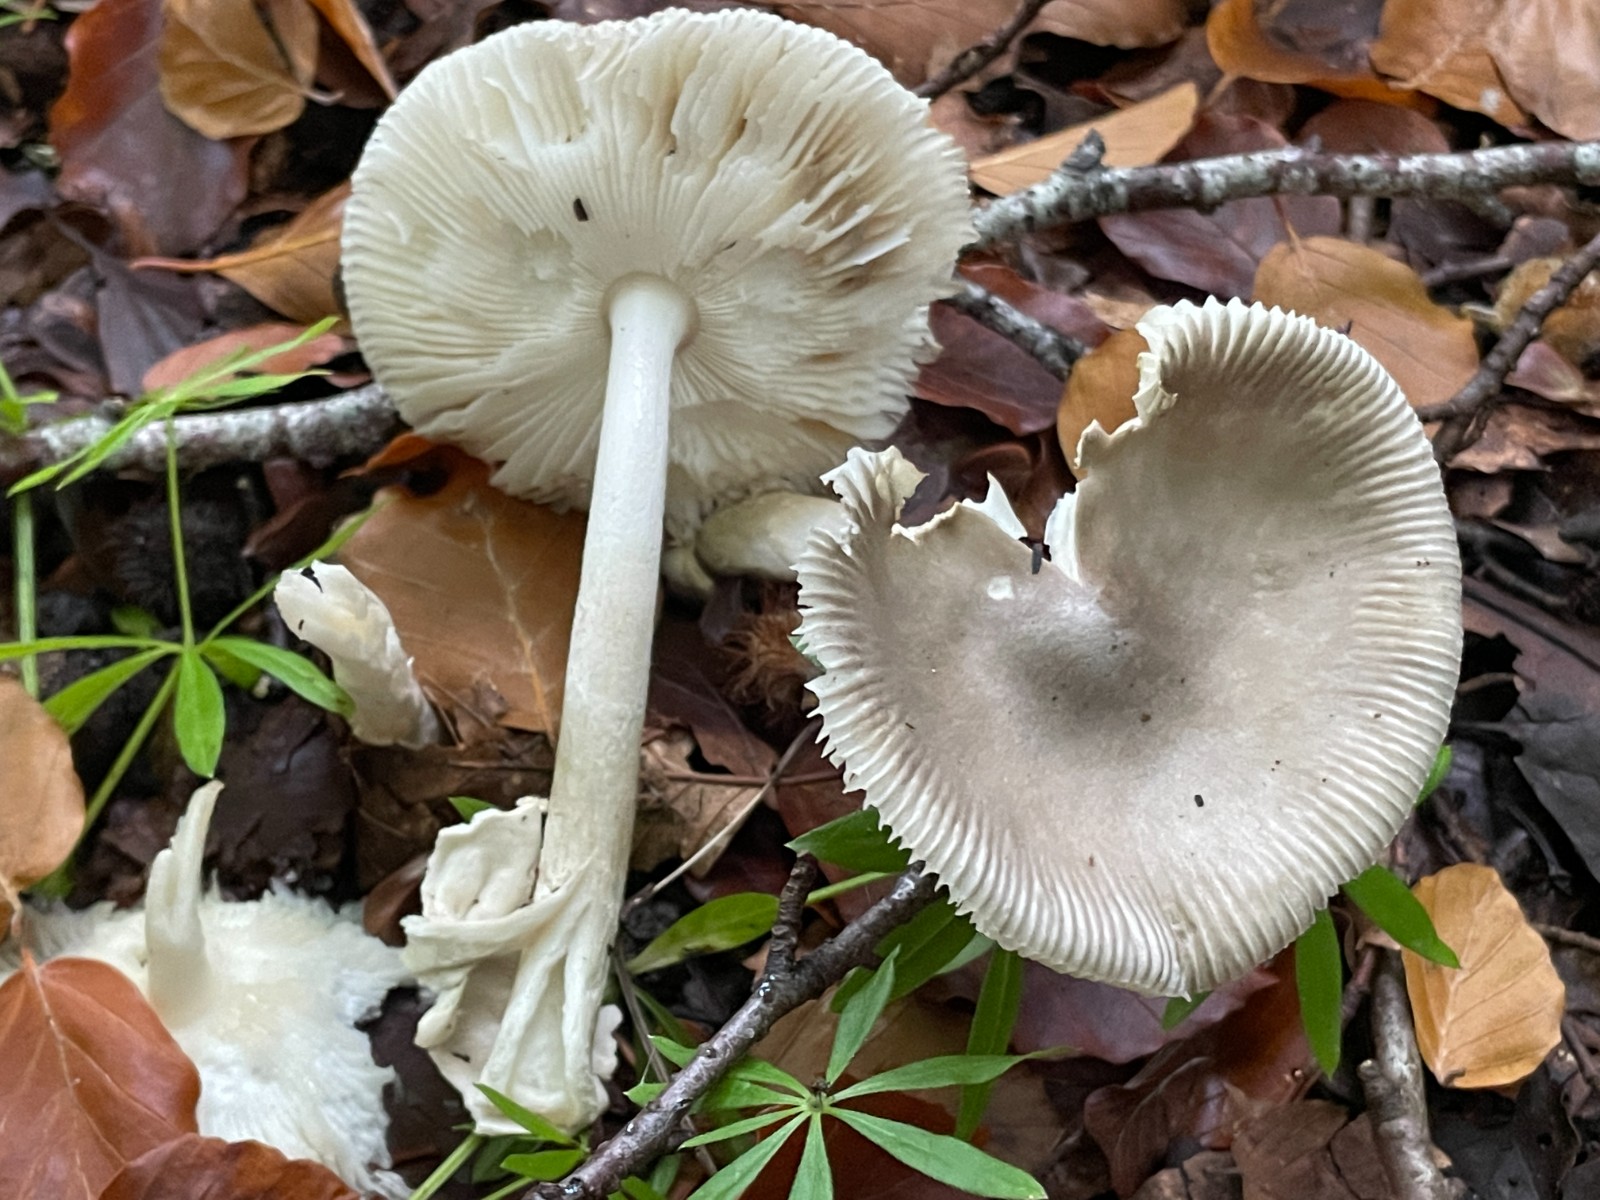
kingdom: Fungi
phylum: Basidiomycota
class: Agaricomycetes
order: Agaricales
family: Amanitaceae
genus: Amanita
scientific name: Amanita vaginata
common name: grå kam-fluesvamp
